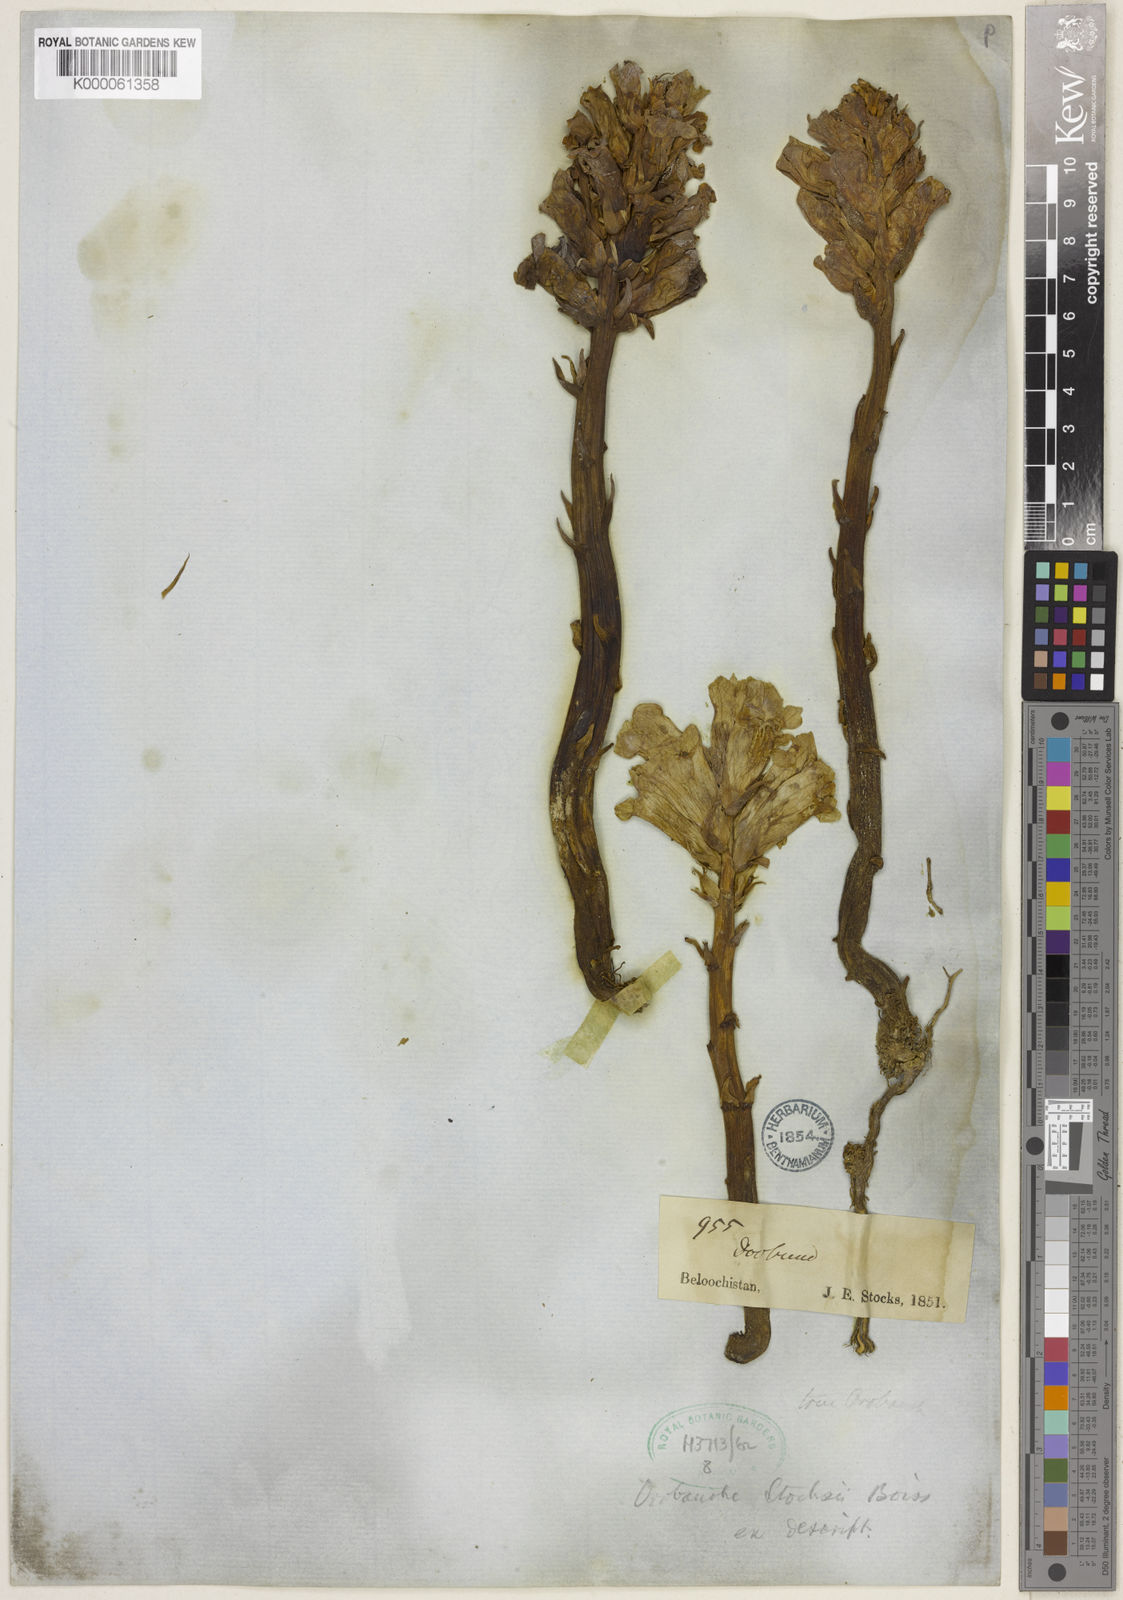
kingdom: Plantae
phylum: Tracheophyta
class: Magnoliopsida
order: Lamiales
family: Orobanchaceae
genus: Orobanche
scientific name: Orobanche stocksii
